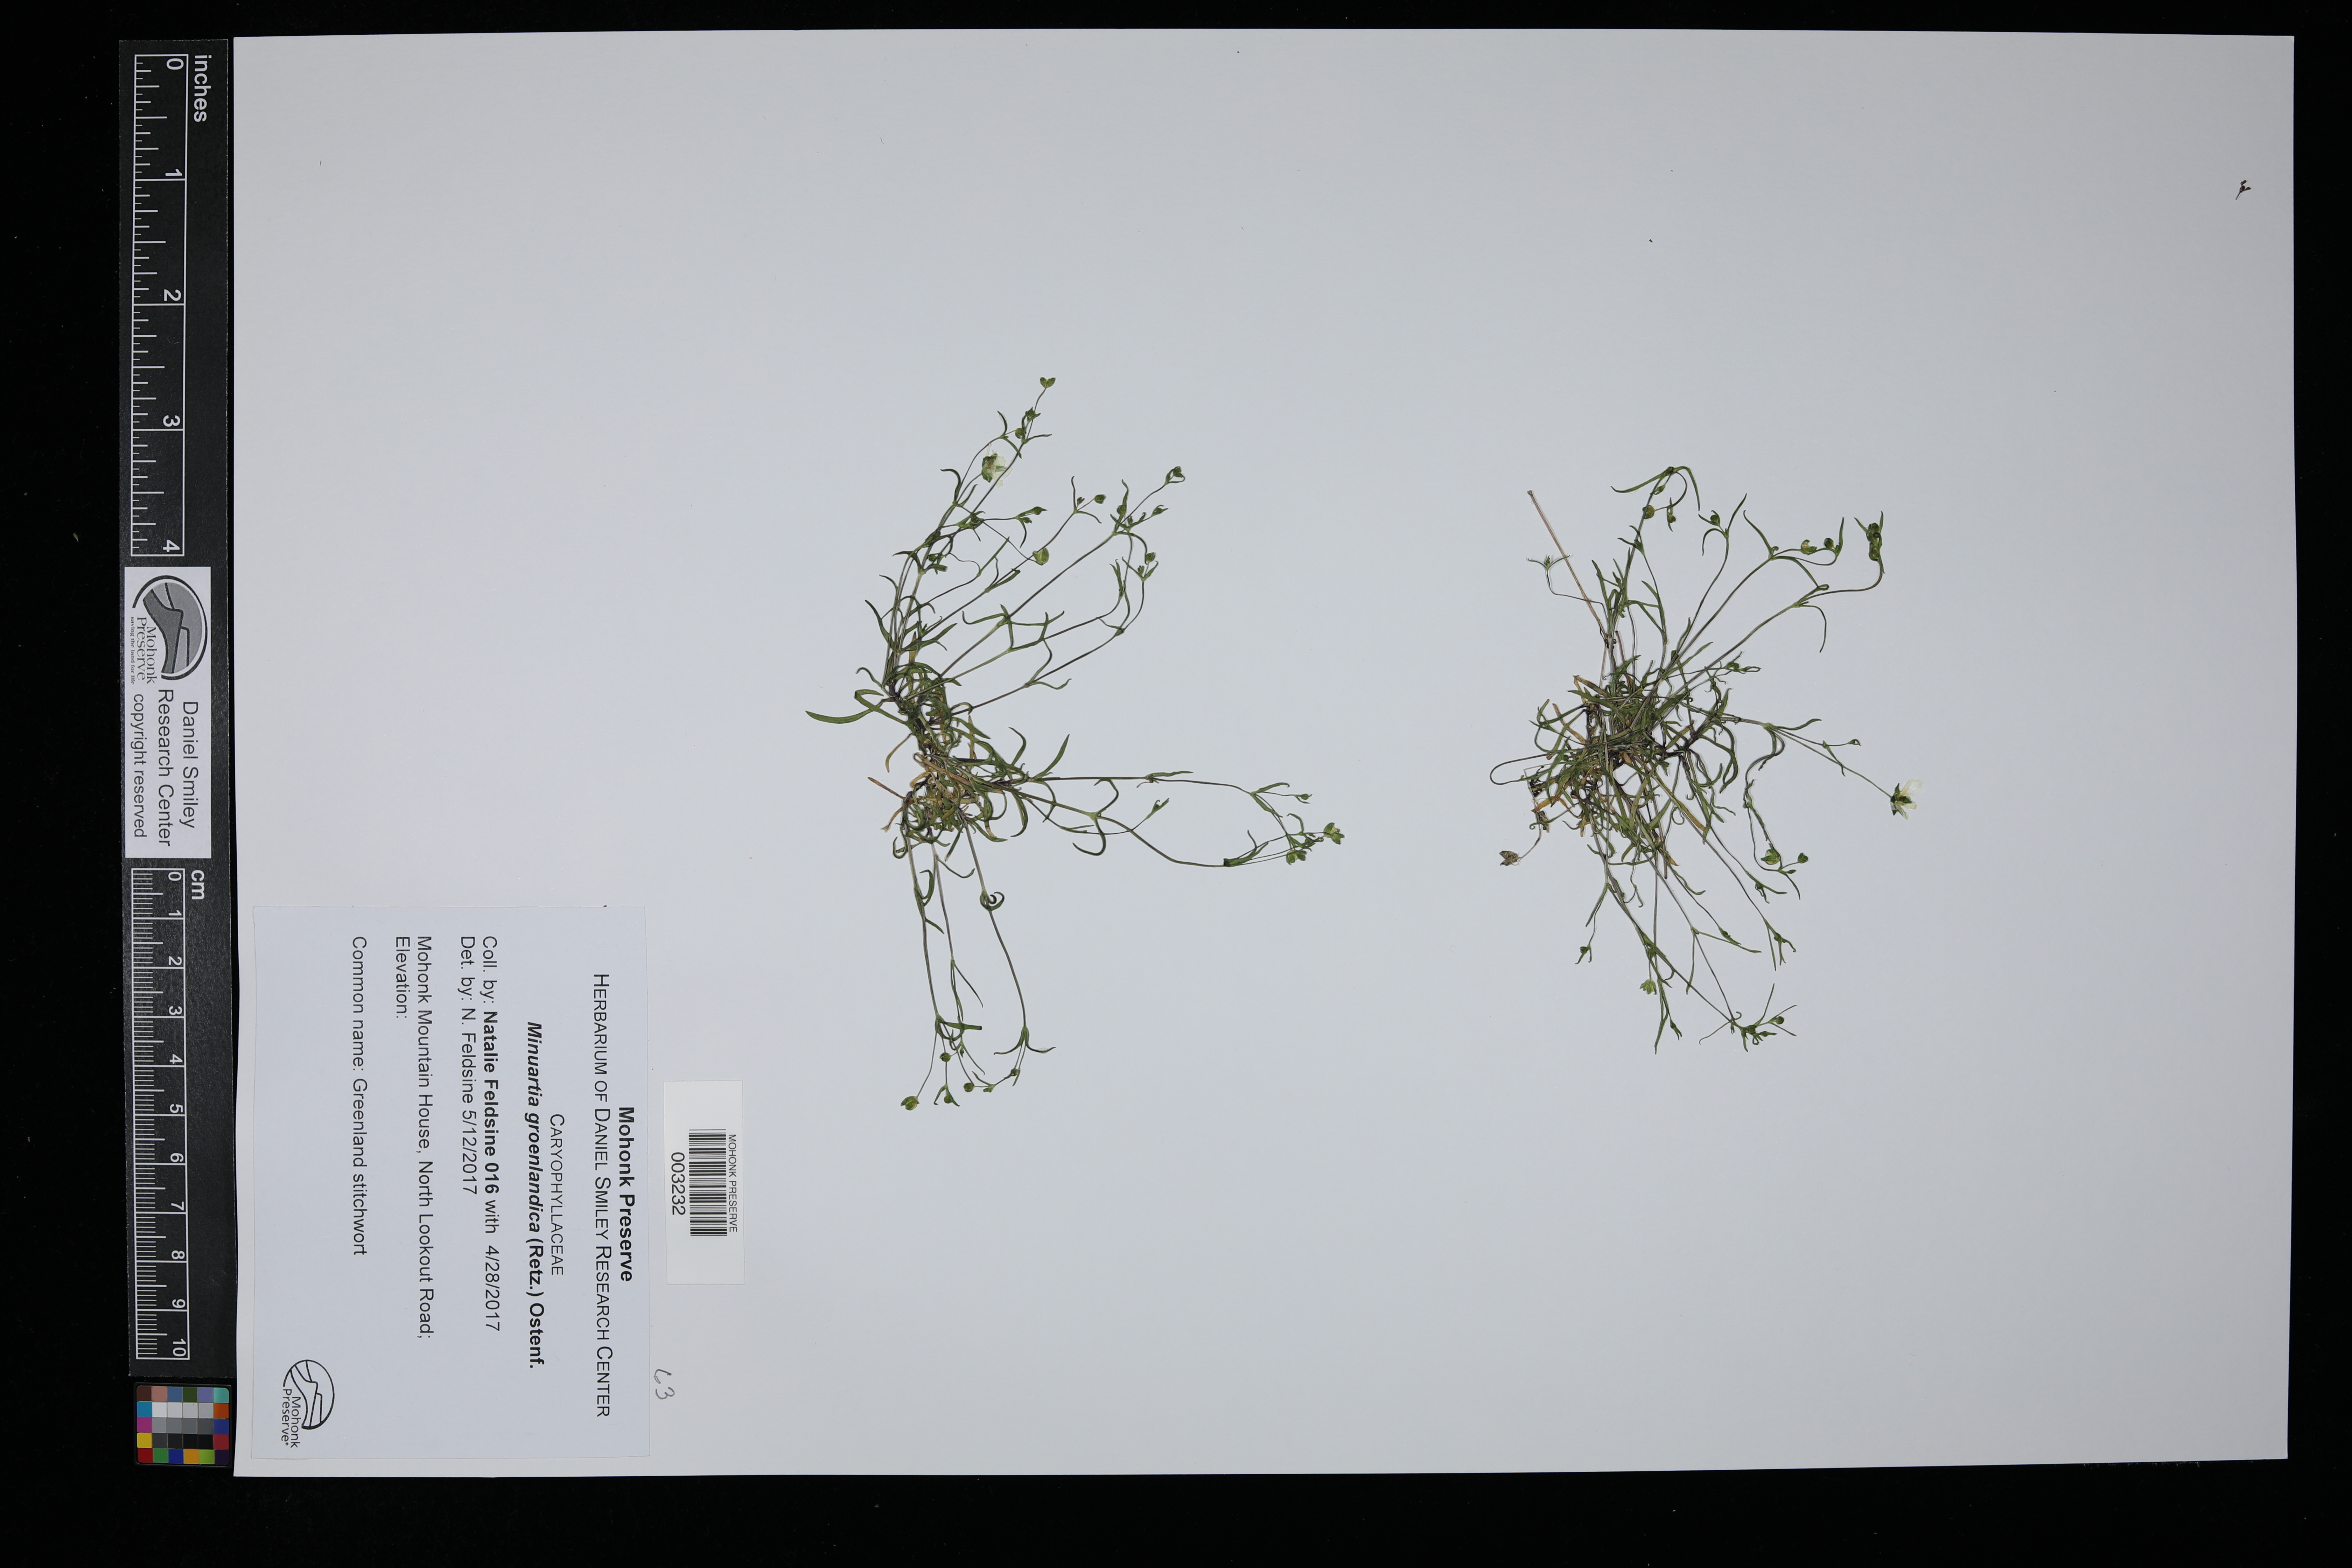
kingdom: Plantae
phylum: Tracheophyta
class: Magnoliopsida
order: Caryophyllales
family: Caryophyllaceae
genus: Geocarpon
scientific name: Geocarpon groenlandicum
